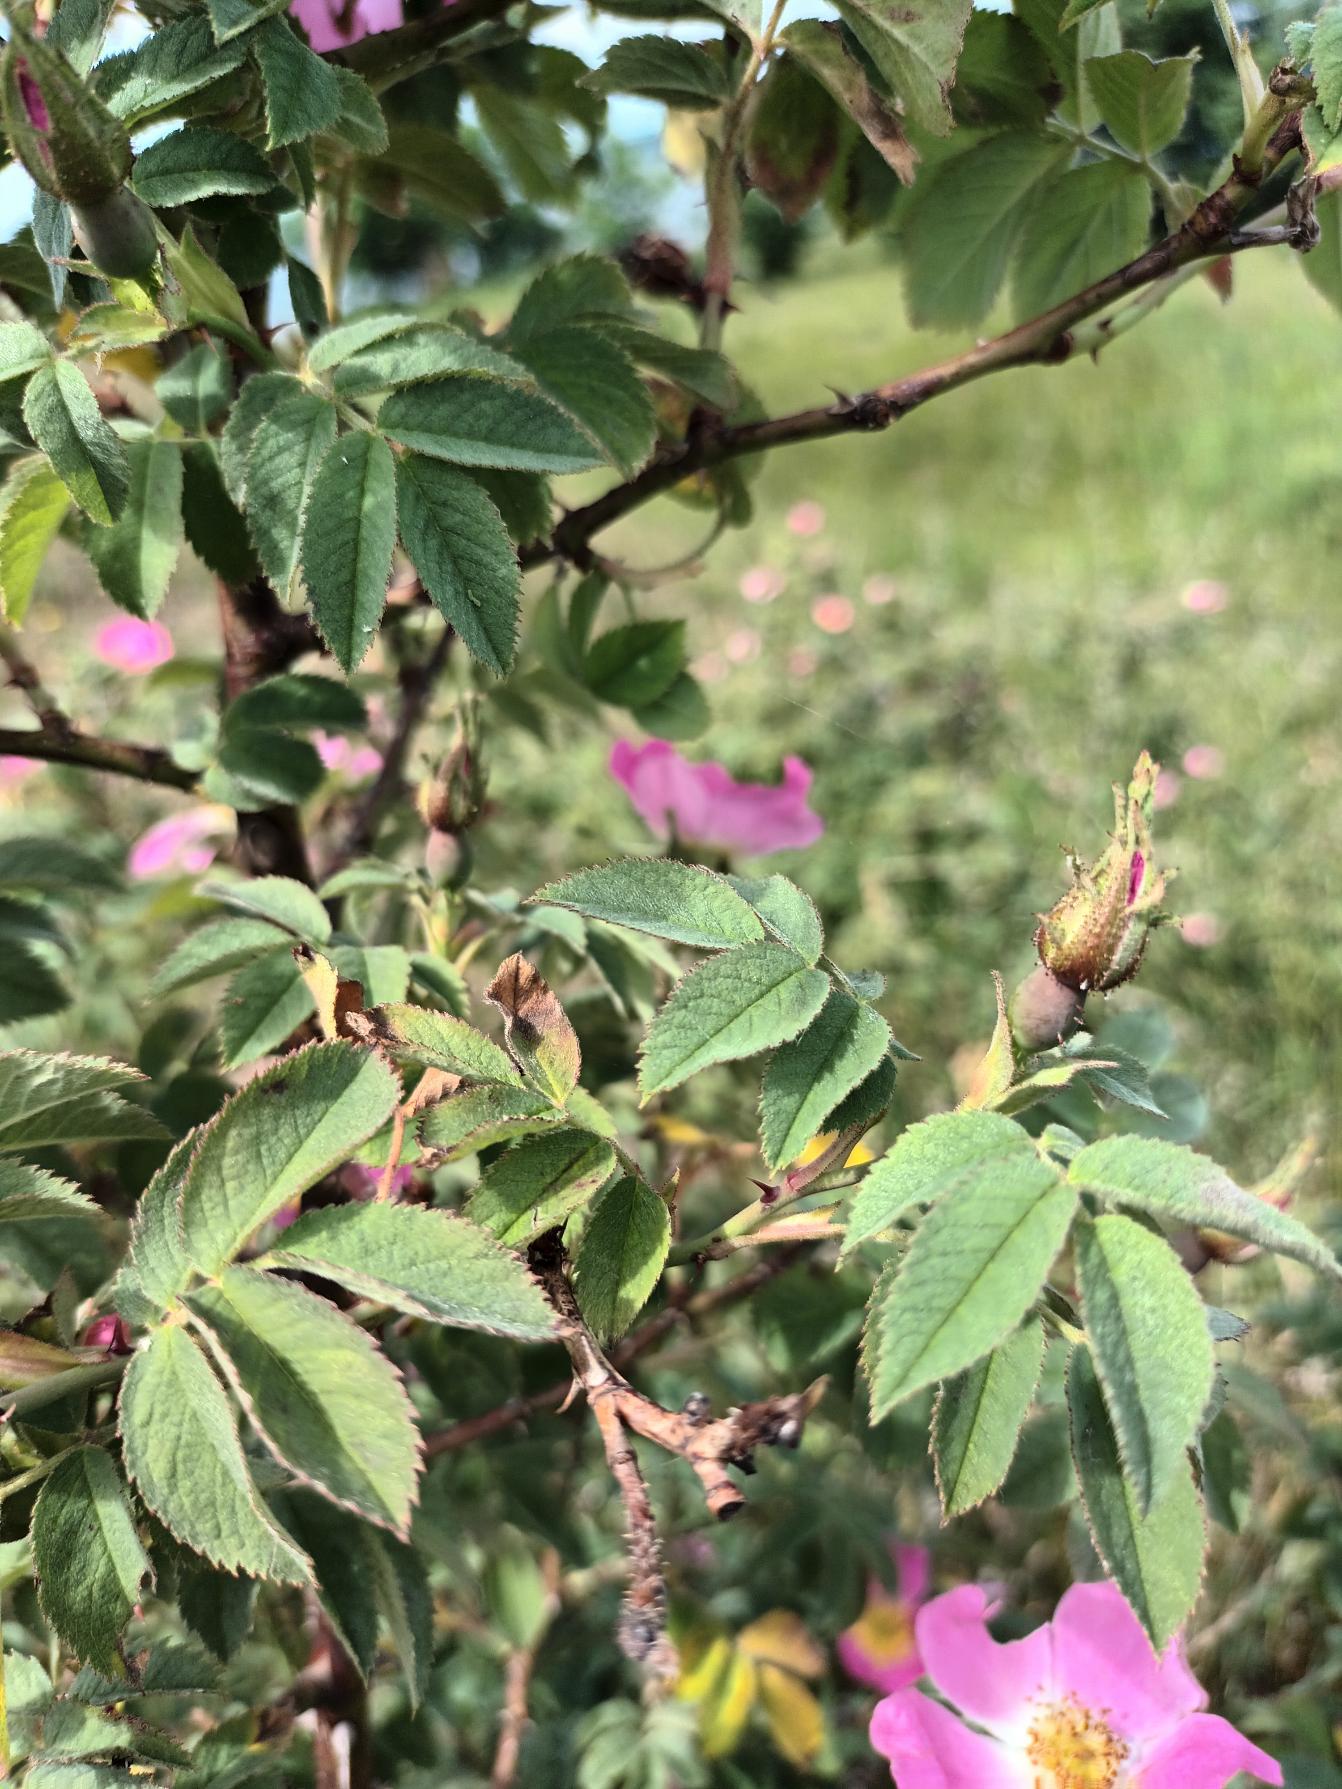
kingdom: Plantae
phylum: Tracheophyta
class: Magnoliopsida
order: Rosales
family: Rosaceae
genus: Rosa
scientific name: Rosa sherardii
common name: Kortstilket filt-rose
